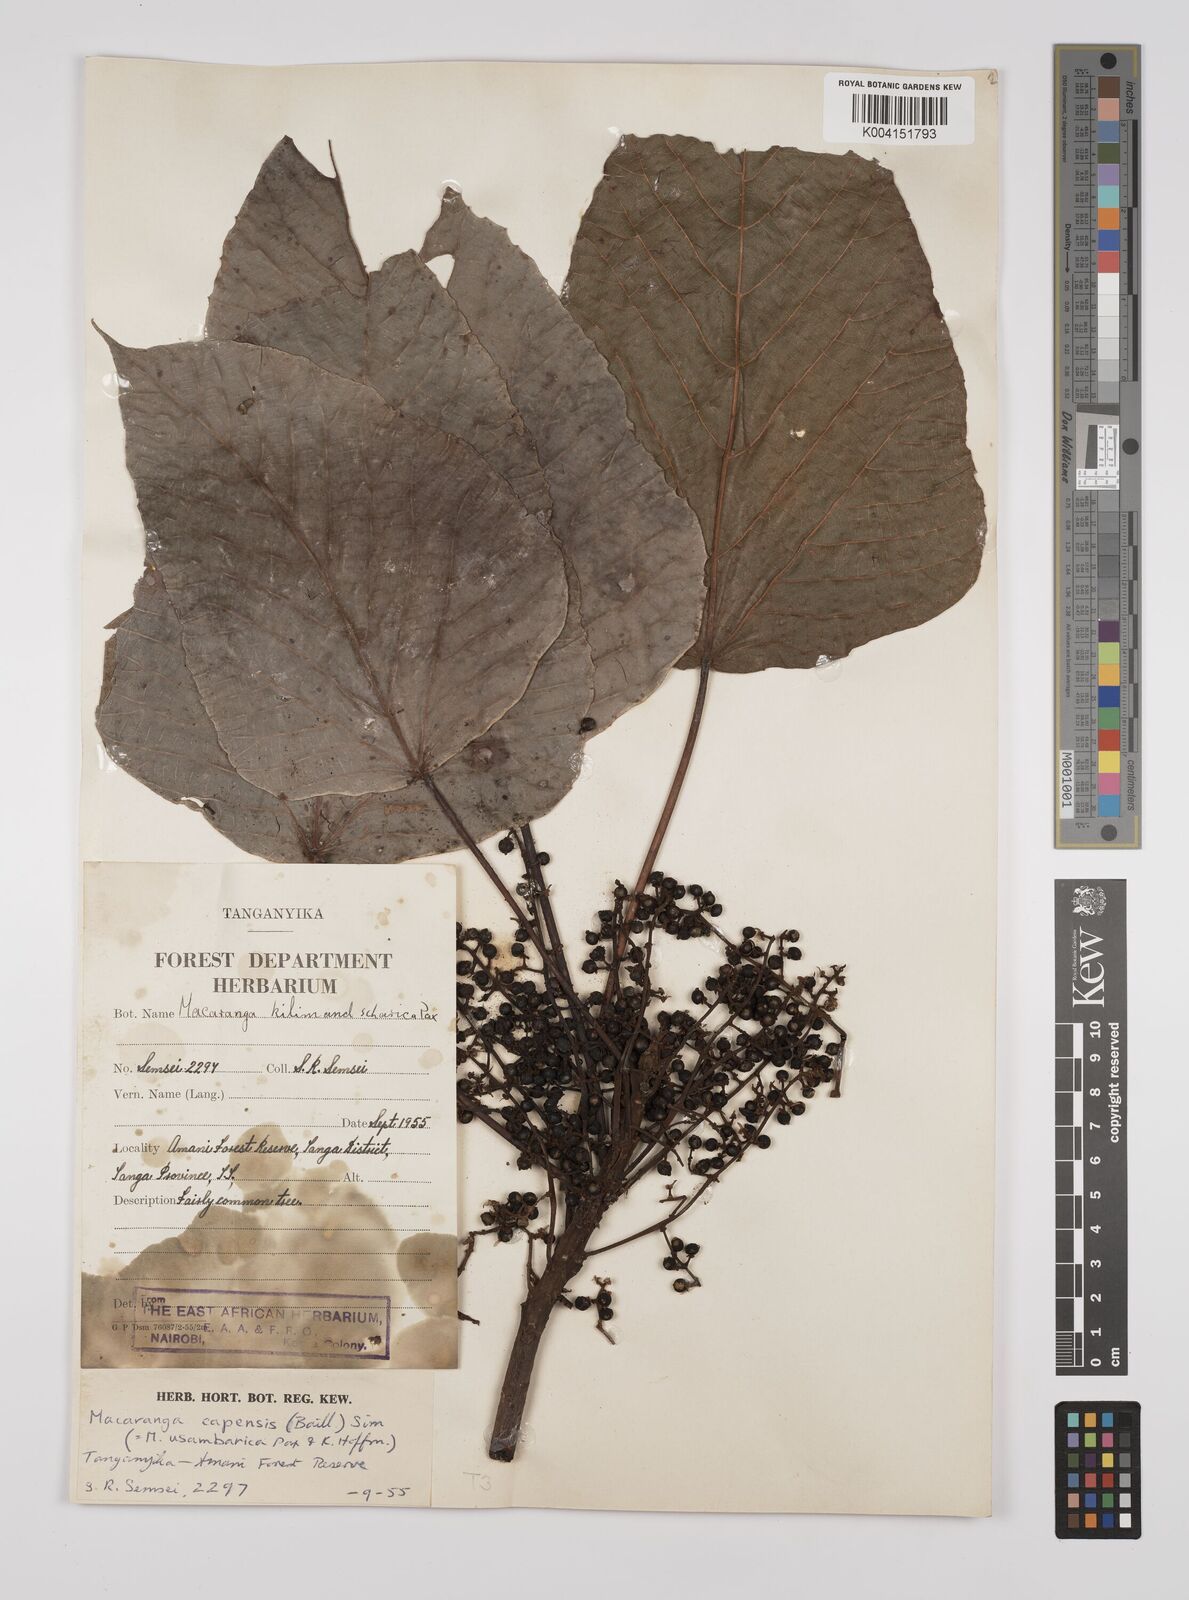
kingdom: Plantae
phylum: Tracheophyta
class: Magnoliopsida
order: Malpighiales
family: Euphorbiaceae
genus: Macaranga
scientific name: Macaranga capensis
